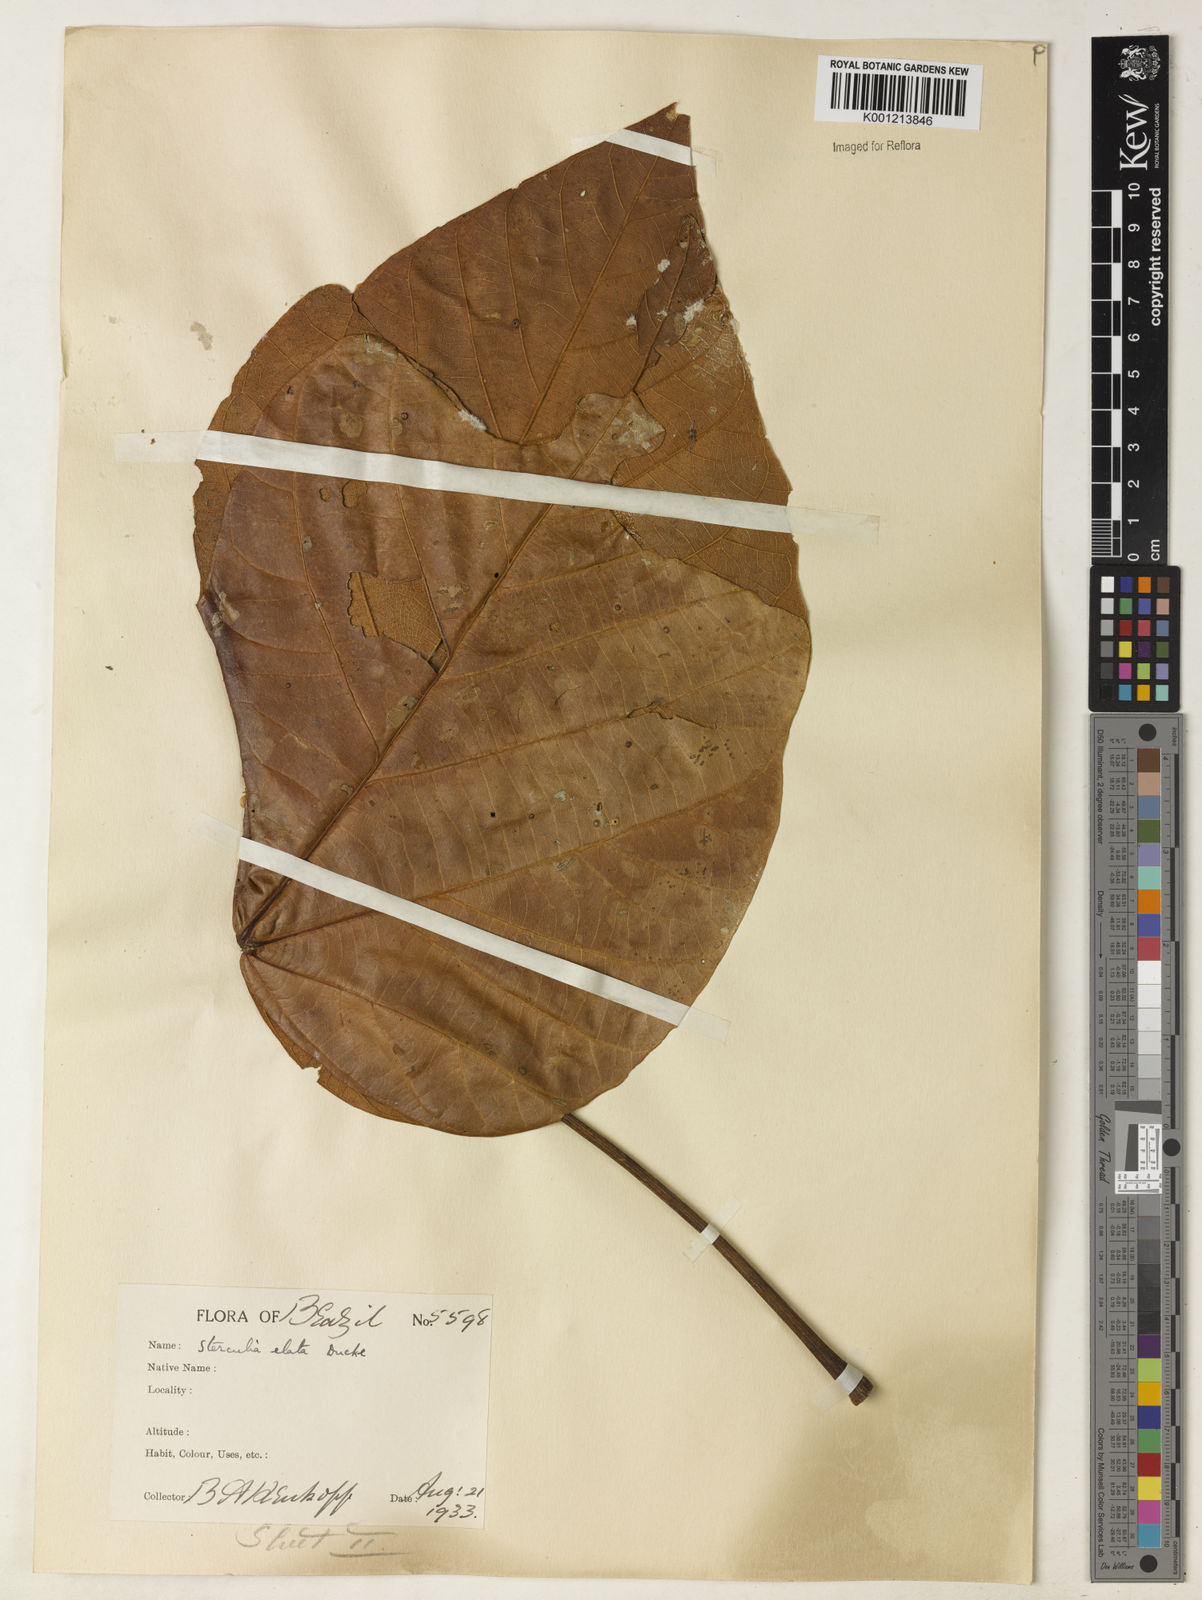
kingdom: Plantae
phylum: Tracheophyta
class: Magnoliopsida
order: Malvales
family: Malvaceae
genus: Sterculia
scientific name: Sterculia apetala
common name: Panama tree
